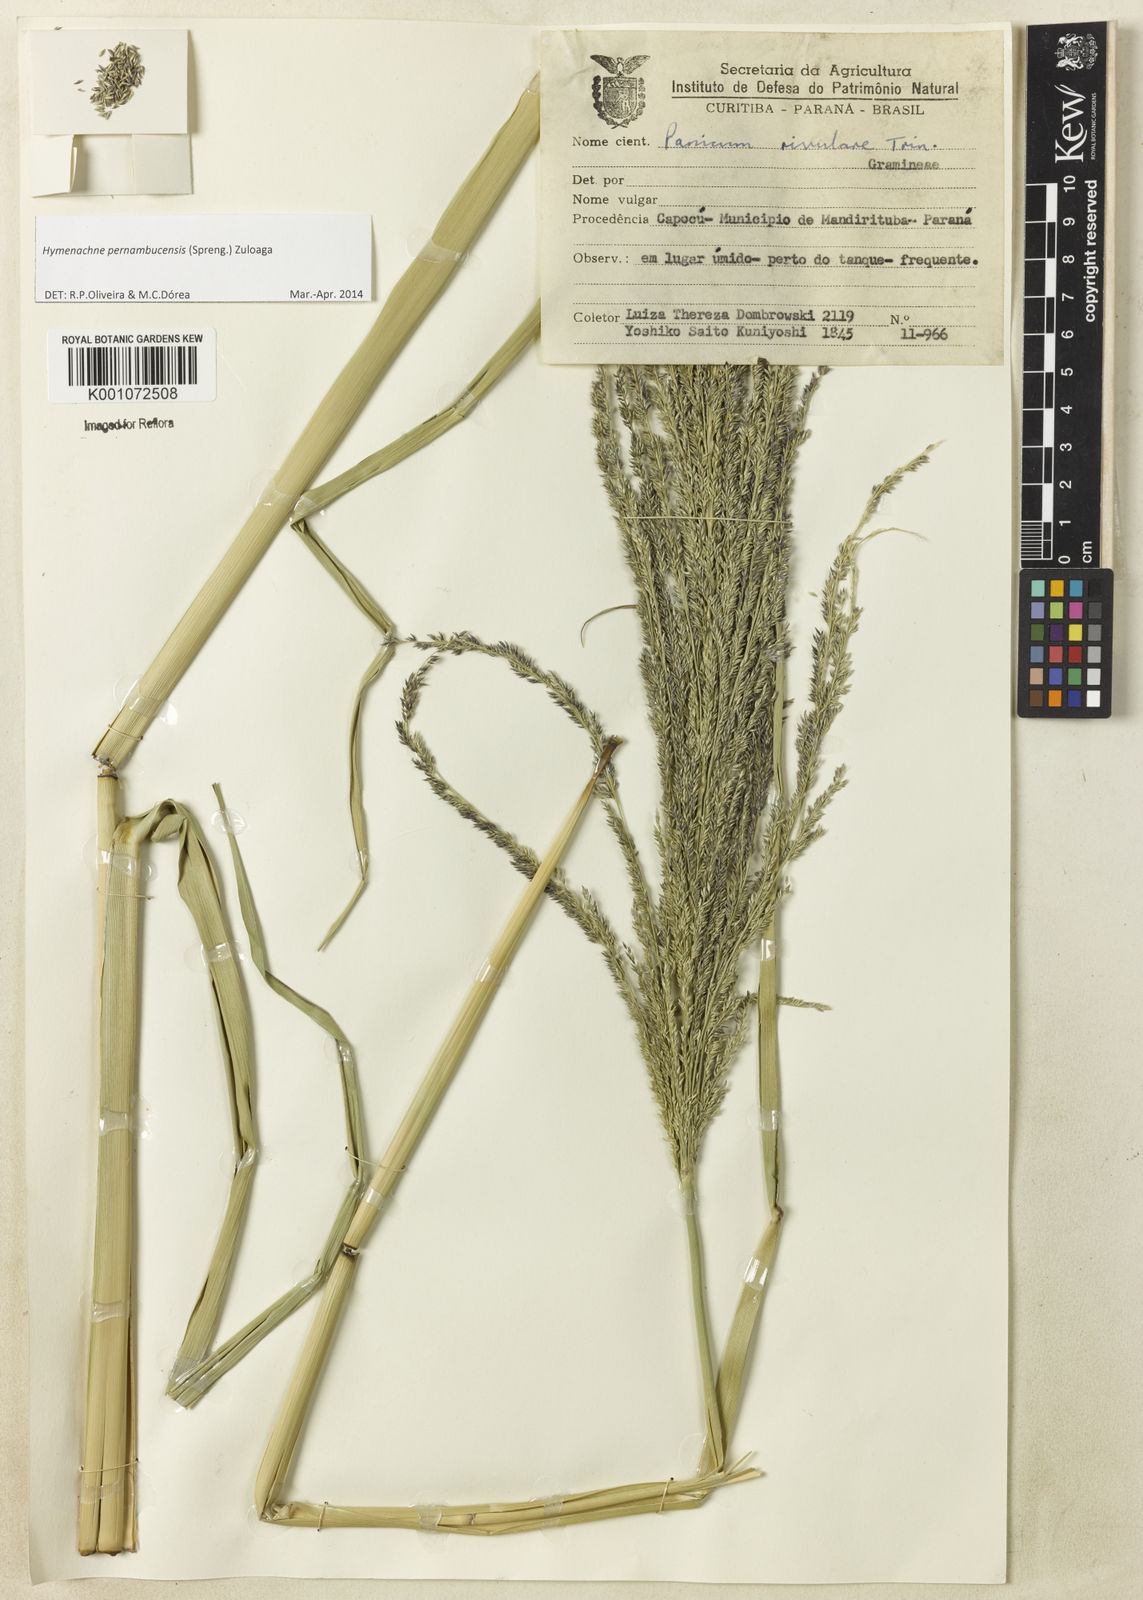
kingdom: Plantae
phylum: Tracheophyta
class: Liliopsida
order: Poales
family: Poaceae
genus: Hymenachne
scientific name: Hymenachne pernambucensis
